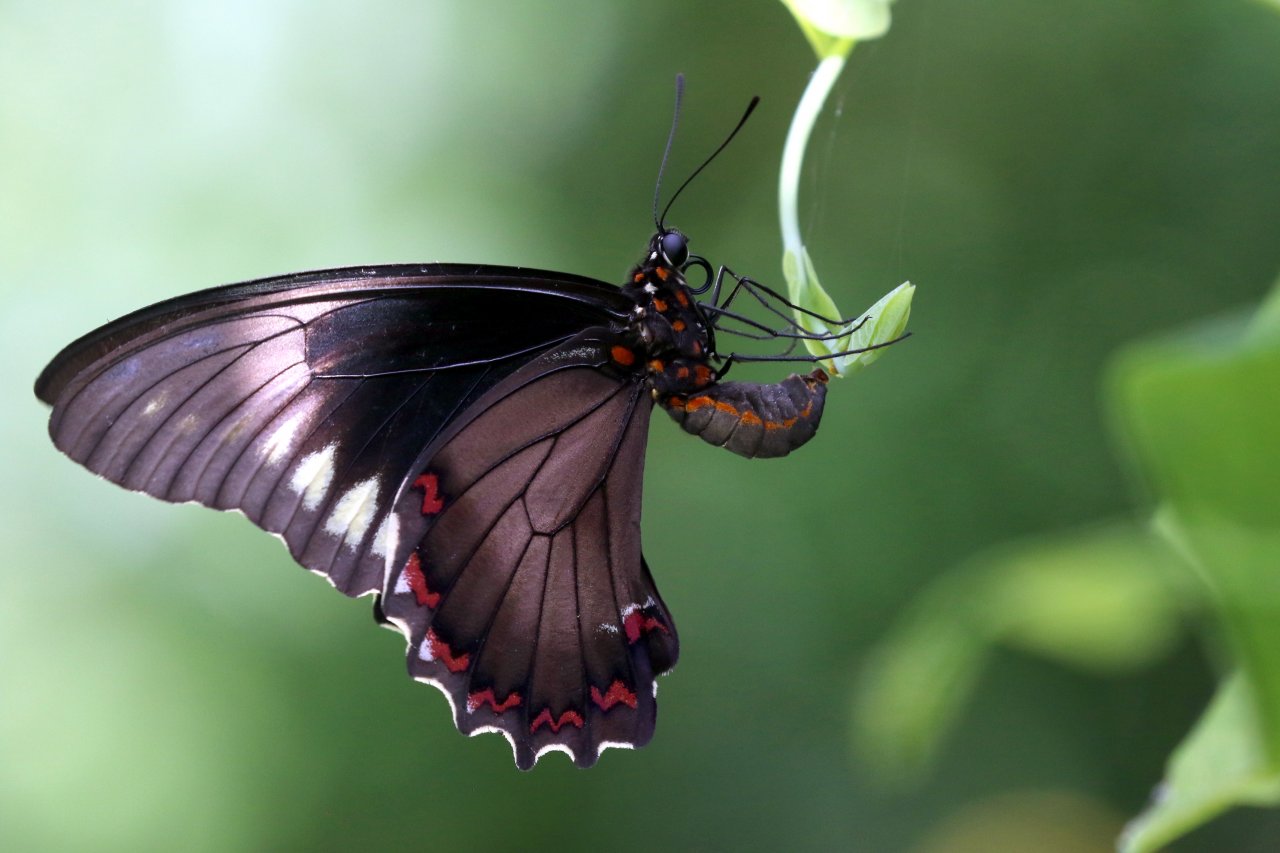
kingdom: Animalia
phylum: Arthropoda
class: Insecta
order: Lepidoptera
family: Papilionidae
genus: Battus
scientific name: Battus polydamas
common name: Polydamas Swallowtail
